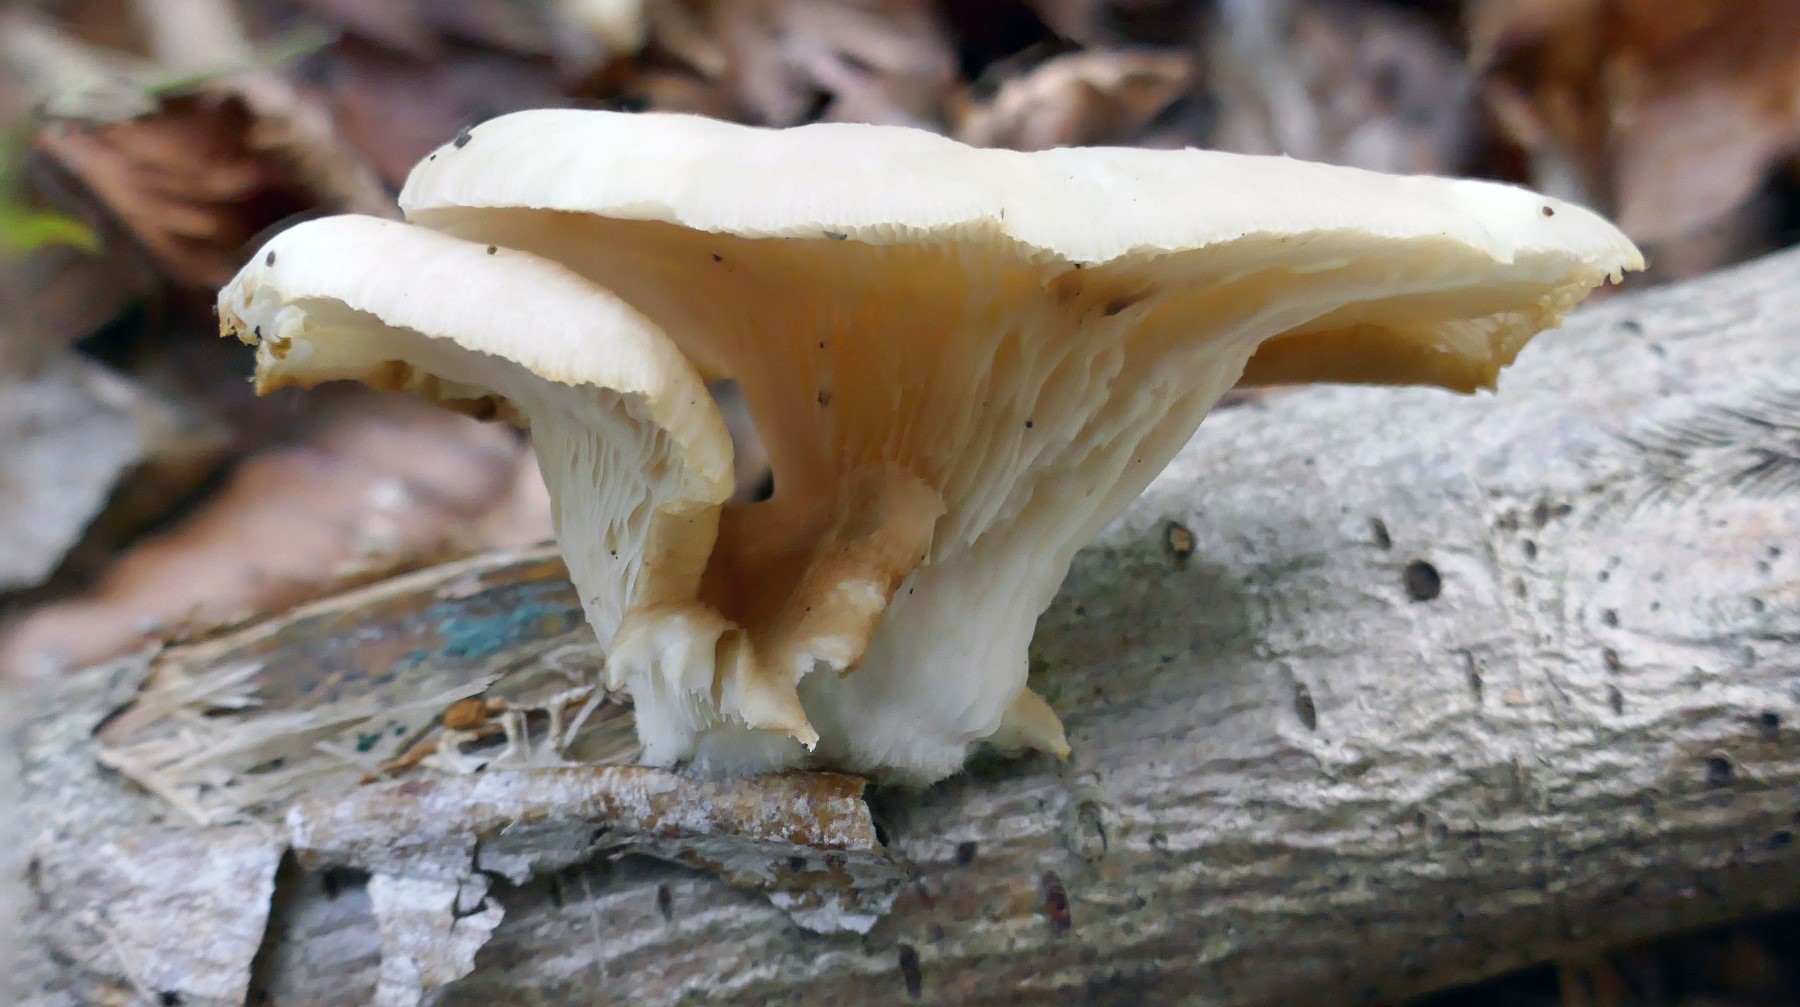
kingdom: Fungi
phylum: Basidiomycota
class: Agaricomycetes
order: Agaricales
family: Pleurotaceae
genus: Pleurotus
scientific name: Pleurotus pulmonarius
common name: sommer-østershat
